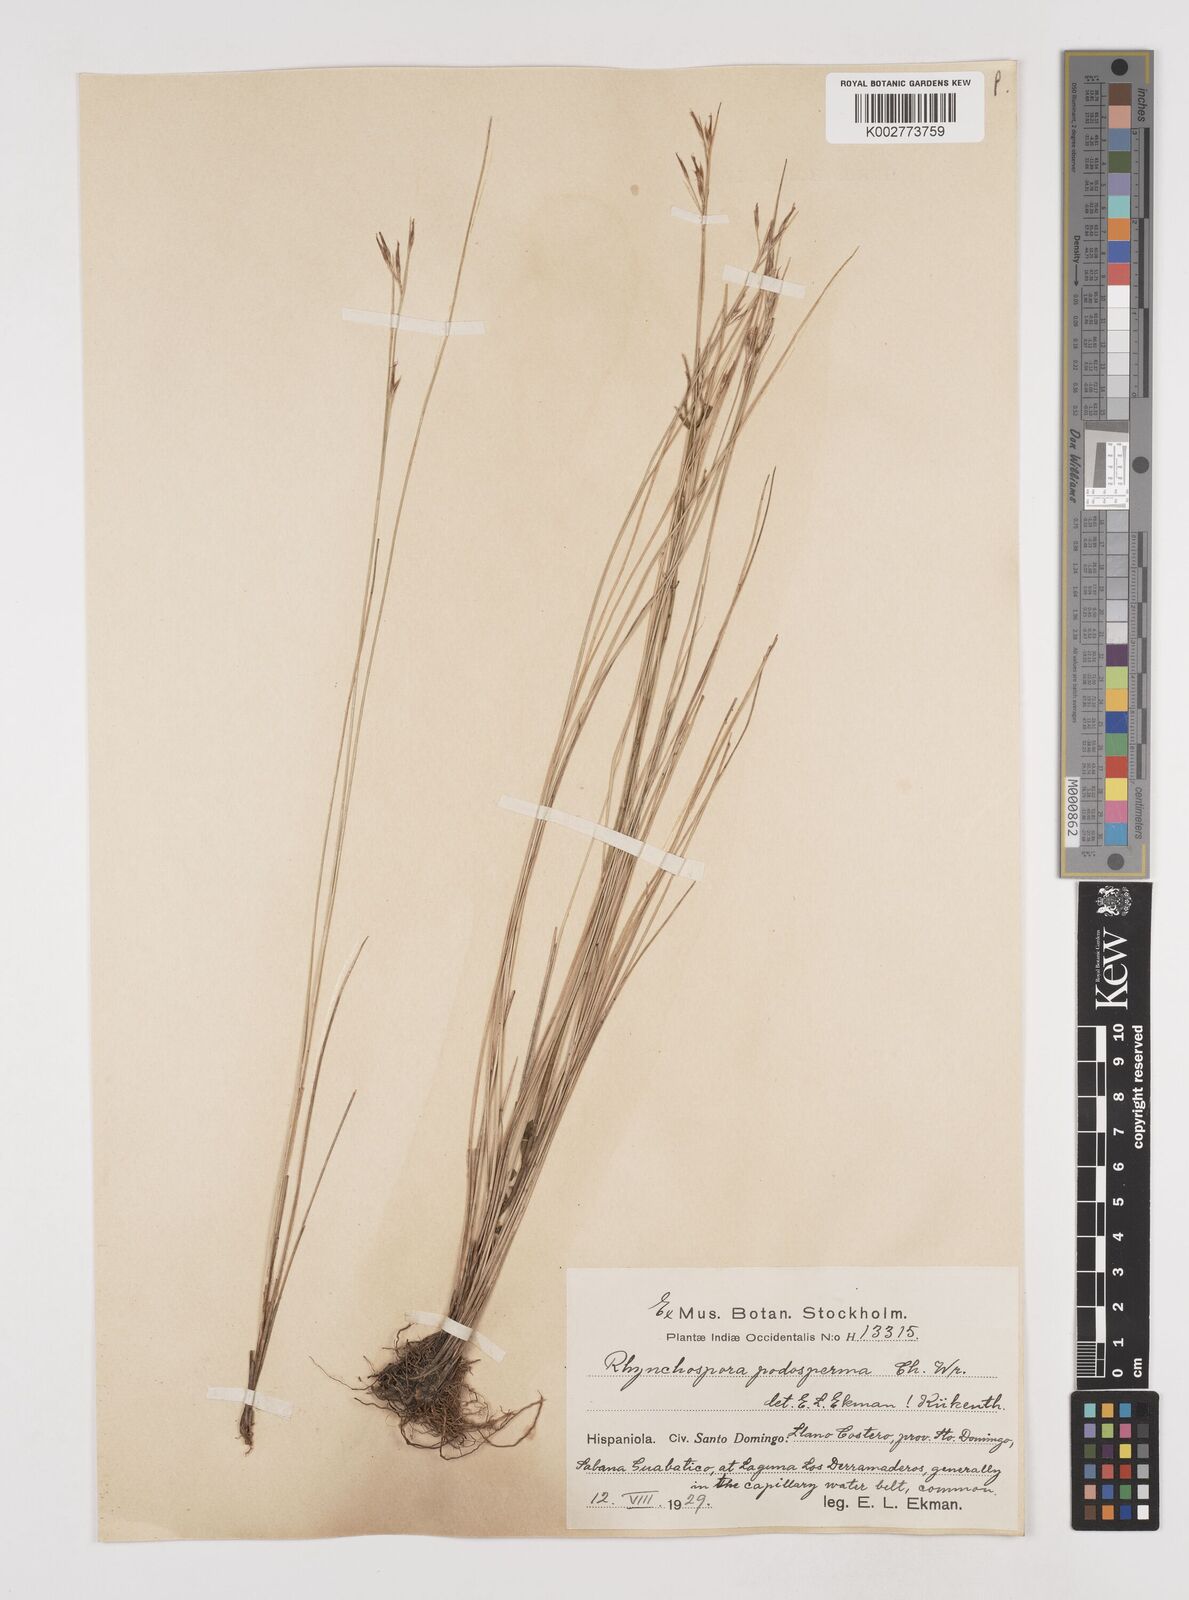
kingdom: Plantae
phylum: Tracheophyta
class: Liliopsida
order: Poales
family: Cyperaceae
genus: Rhynchospora
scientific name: Rhynchospora filiformis
